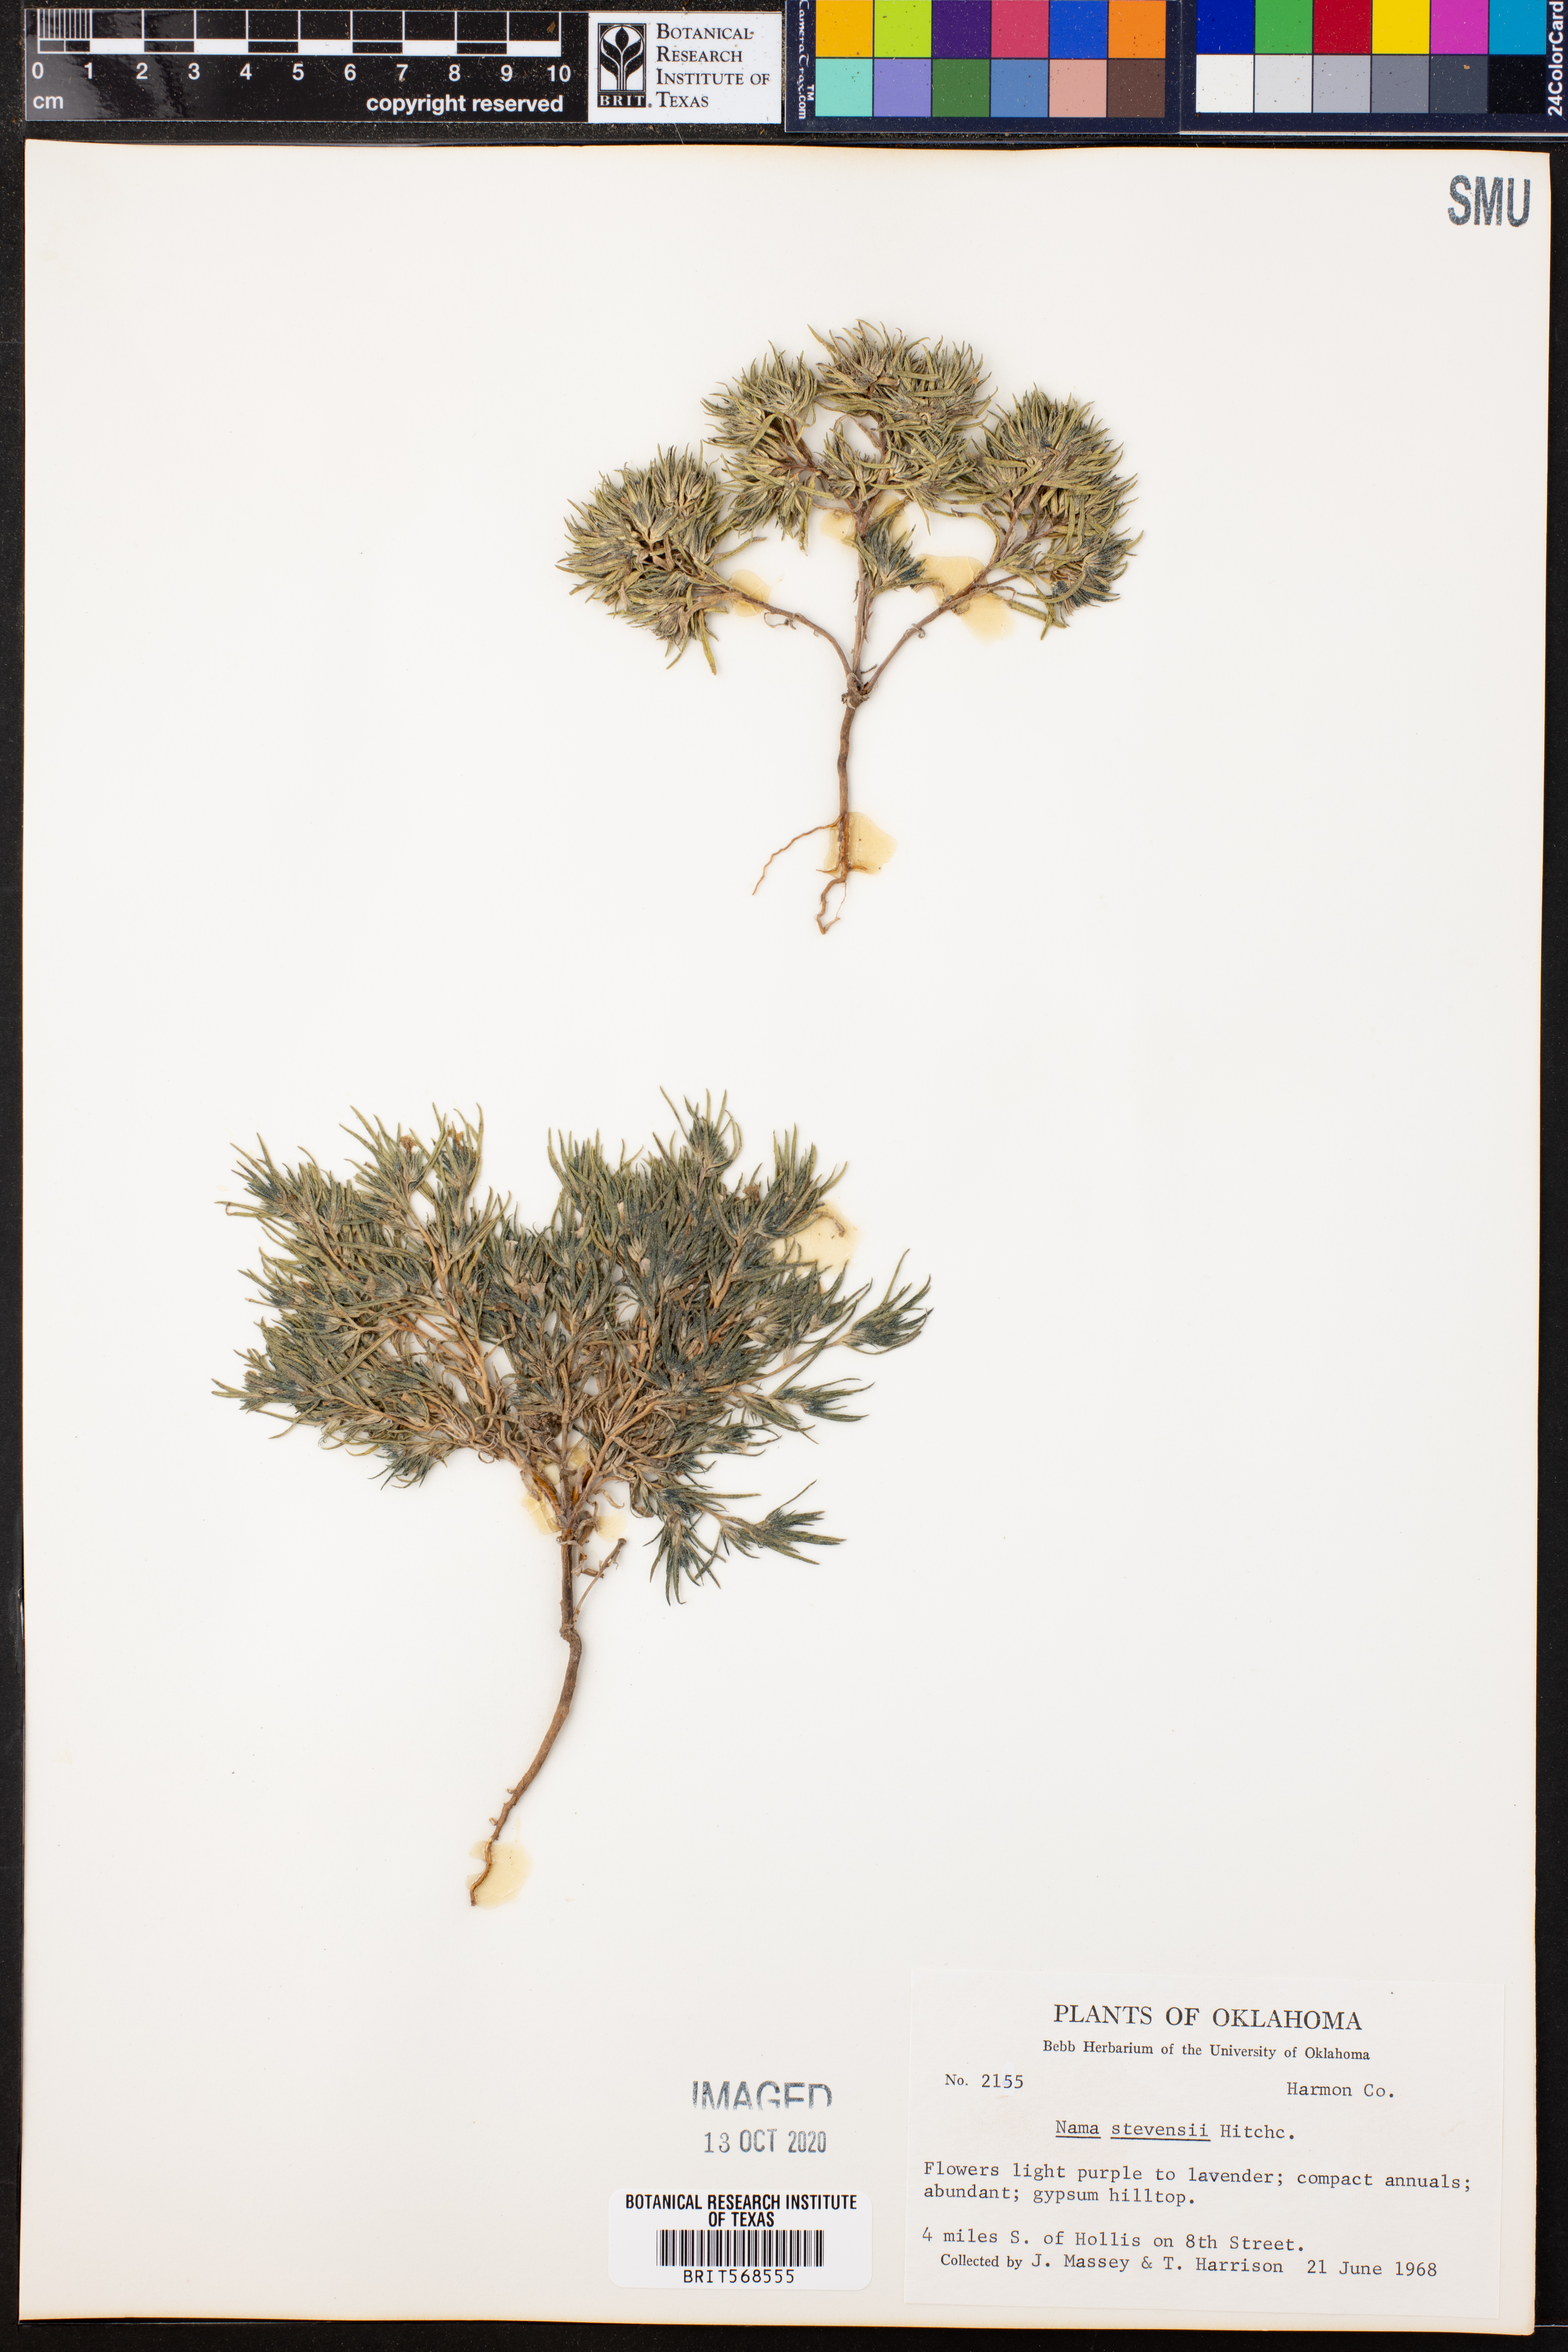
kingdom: Plantae
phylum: Tracheophyta
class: Magnoliopsida
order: Boraginales
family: Namaceae
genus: Nama
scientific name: Nama stevensii
